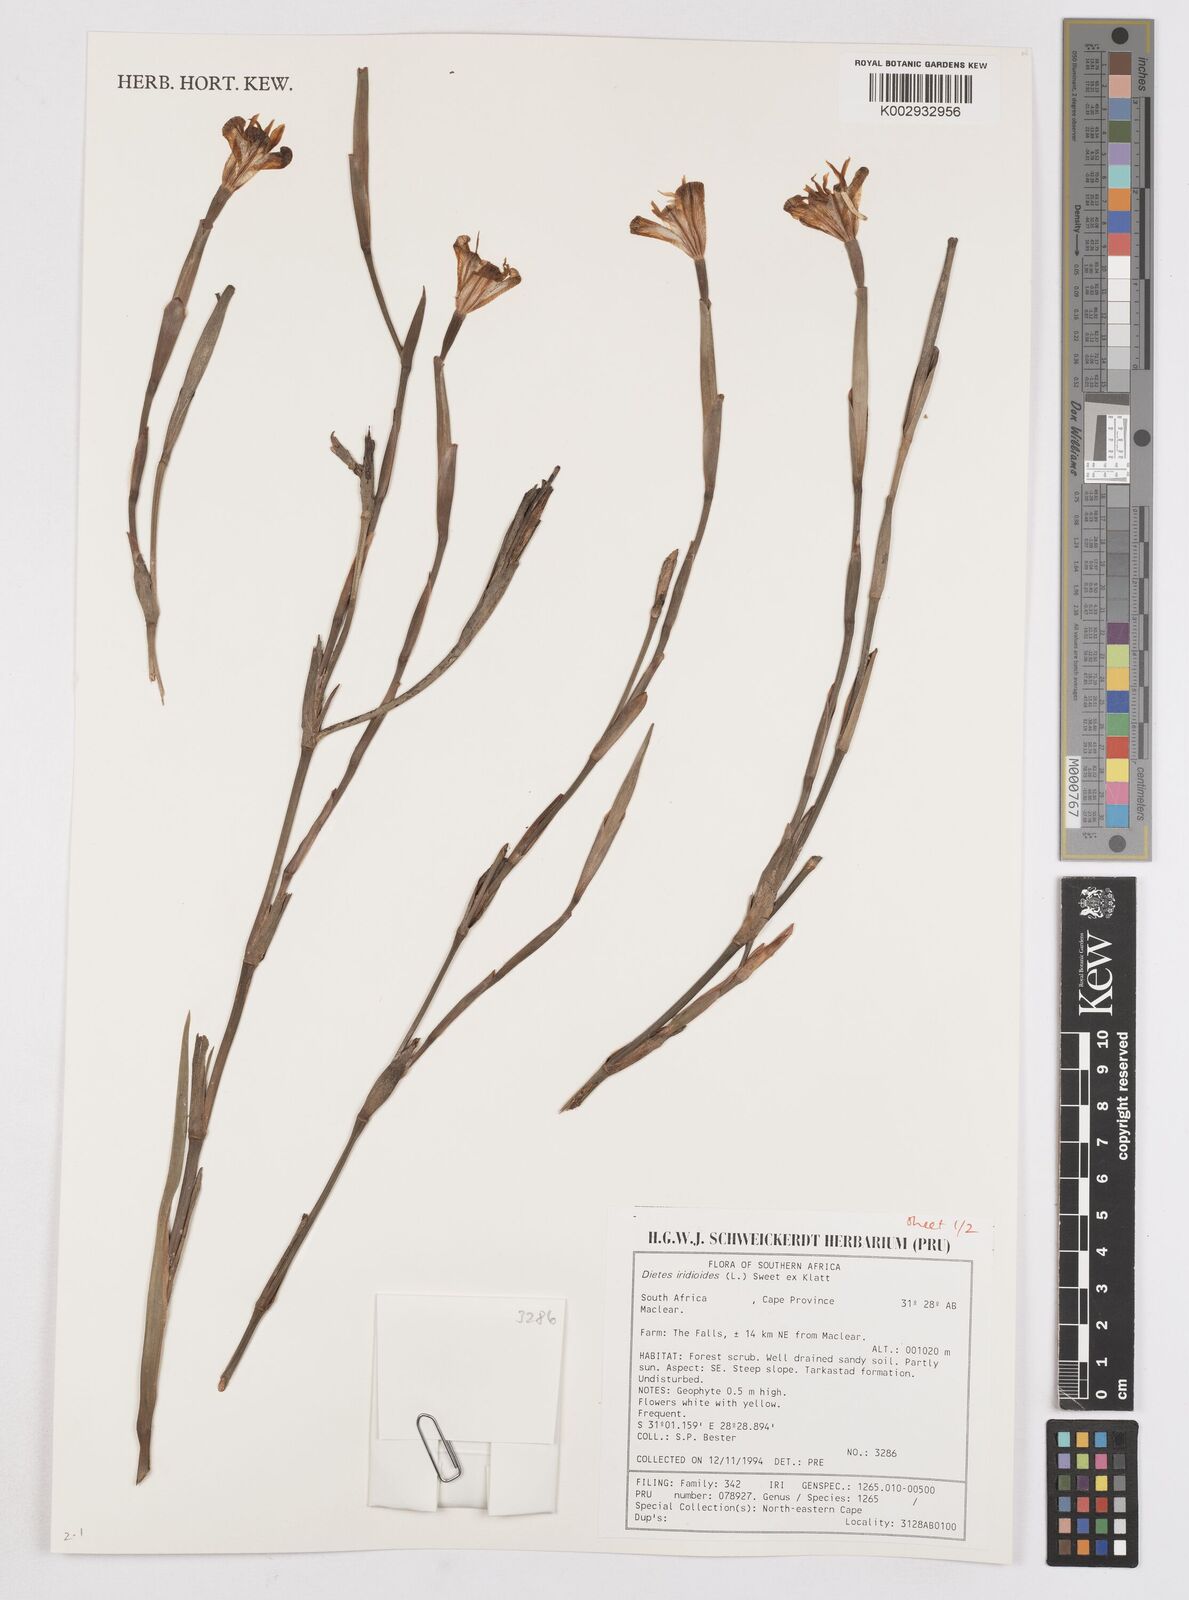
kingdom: Plantae
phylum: Tracheophyta
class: Liliopsida
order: Asparagales
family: Iridaceae
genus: Dietes
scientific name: Dietes iridioides
